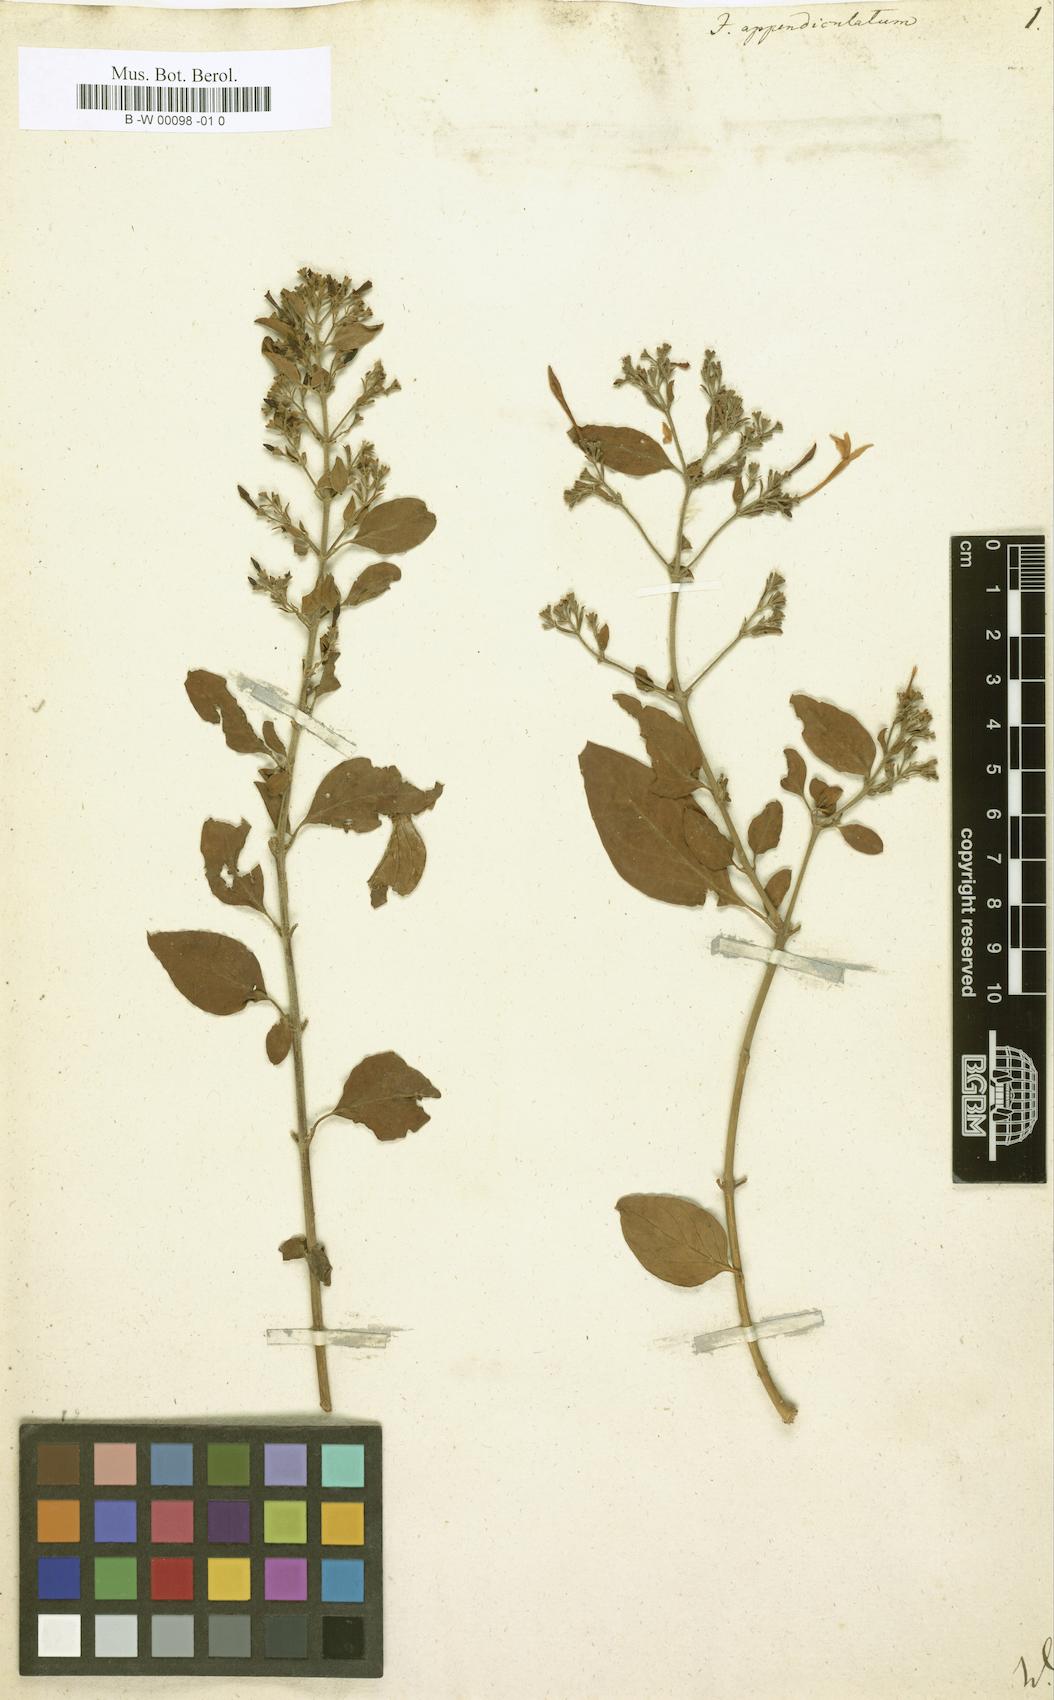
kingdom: Plantae
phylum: Tracheophyta
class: Magnoliopsida
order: Lamiales
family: Oleaceae
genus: Jasminum
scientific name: Jasminum auriculatum
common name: Needle-flower jasmine
